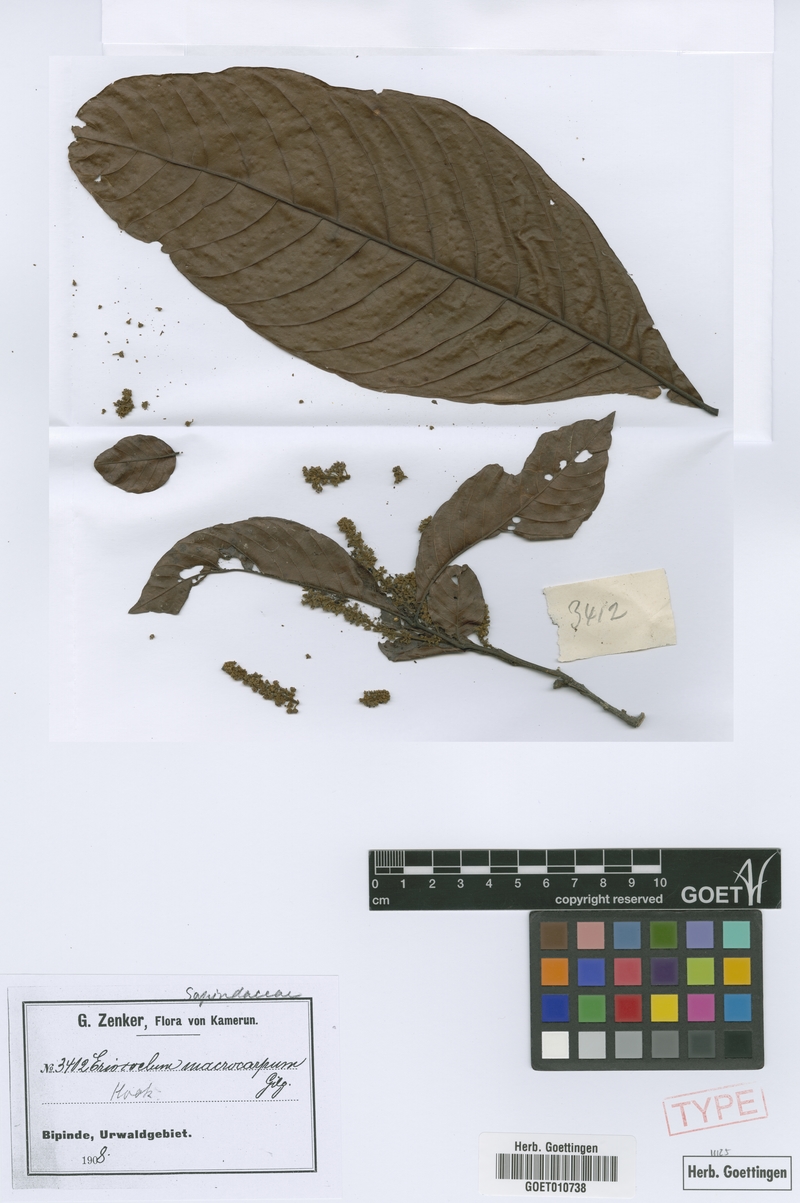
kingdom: Plantae
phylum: Tracheophyta
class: Magnoliopsida
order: Sapindales
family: Sapindaceae
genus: Eriocoelum
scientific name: Eriocoelum macrocarpum
